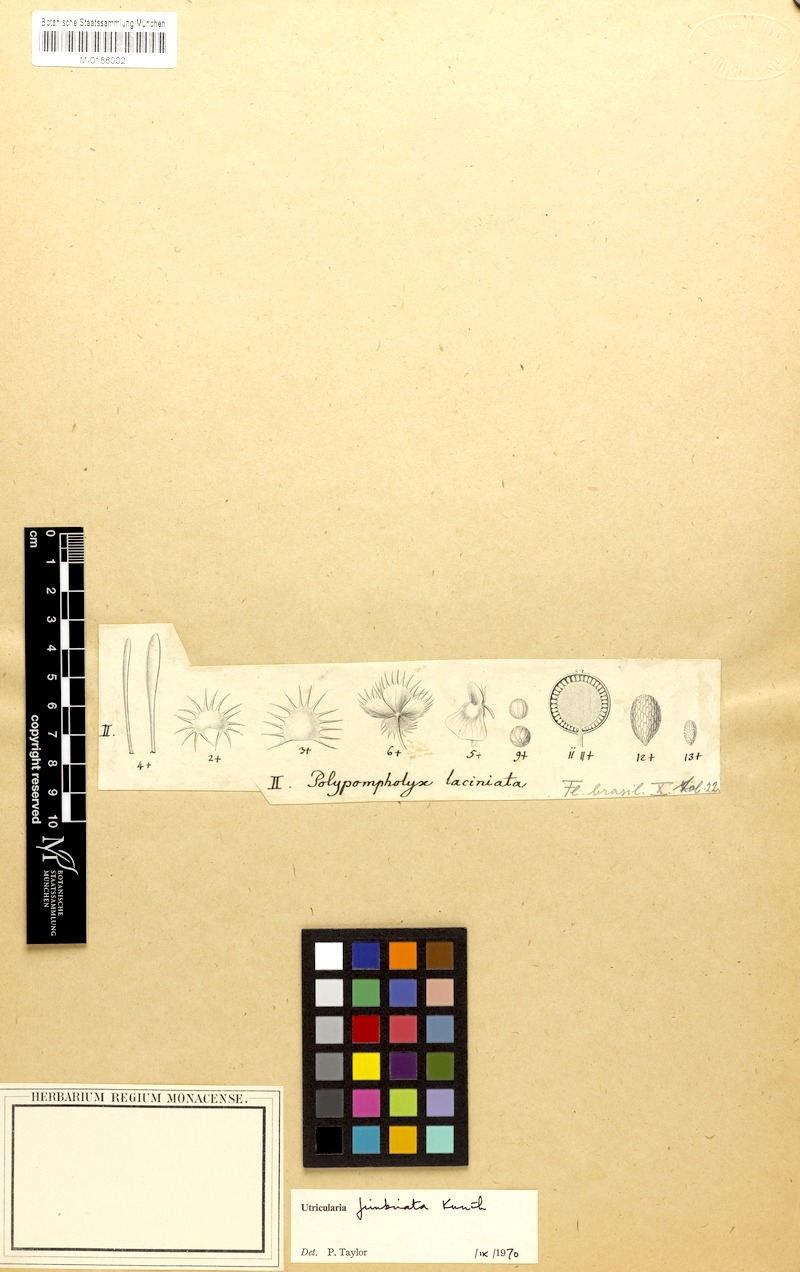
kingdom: Plantae
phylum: Tracheophyta
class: Magnoliopsida
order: Lamiales
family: Lentibulariaceae
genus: Utricularia
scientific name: Utricularia simulans
